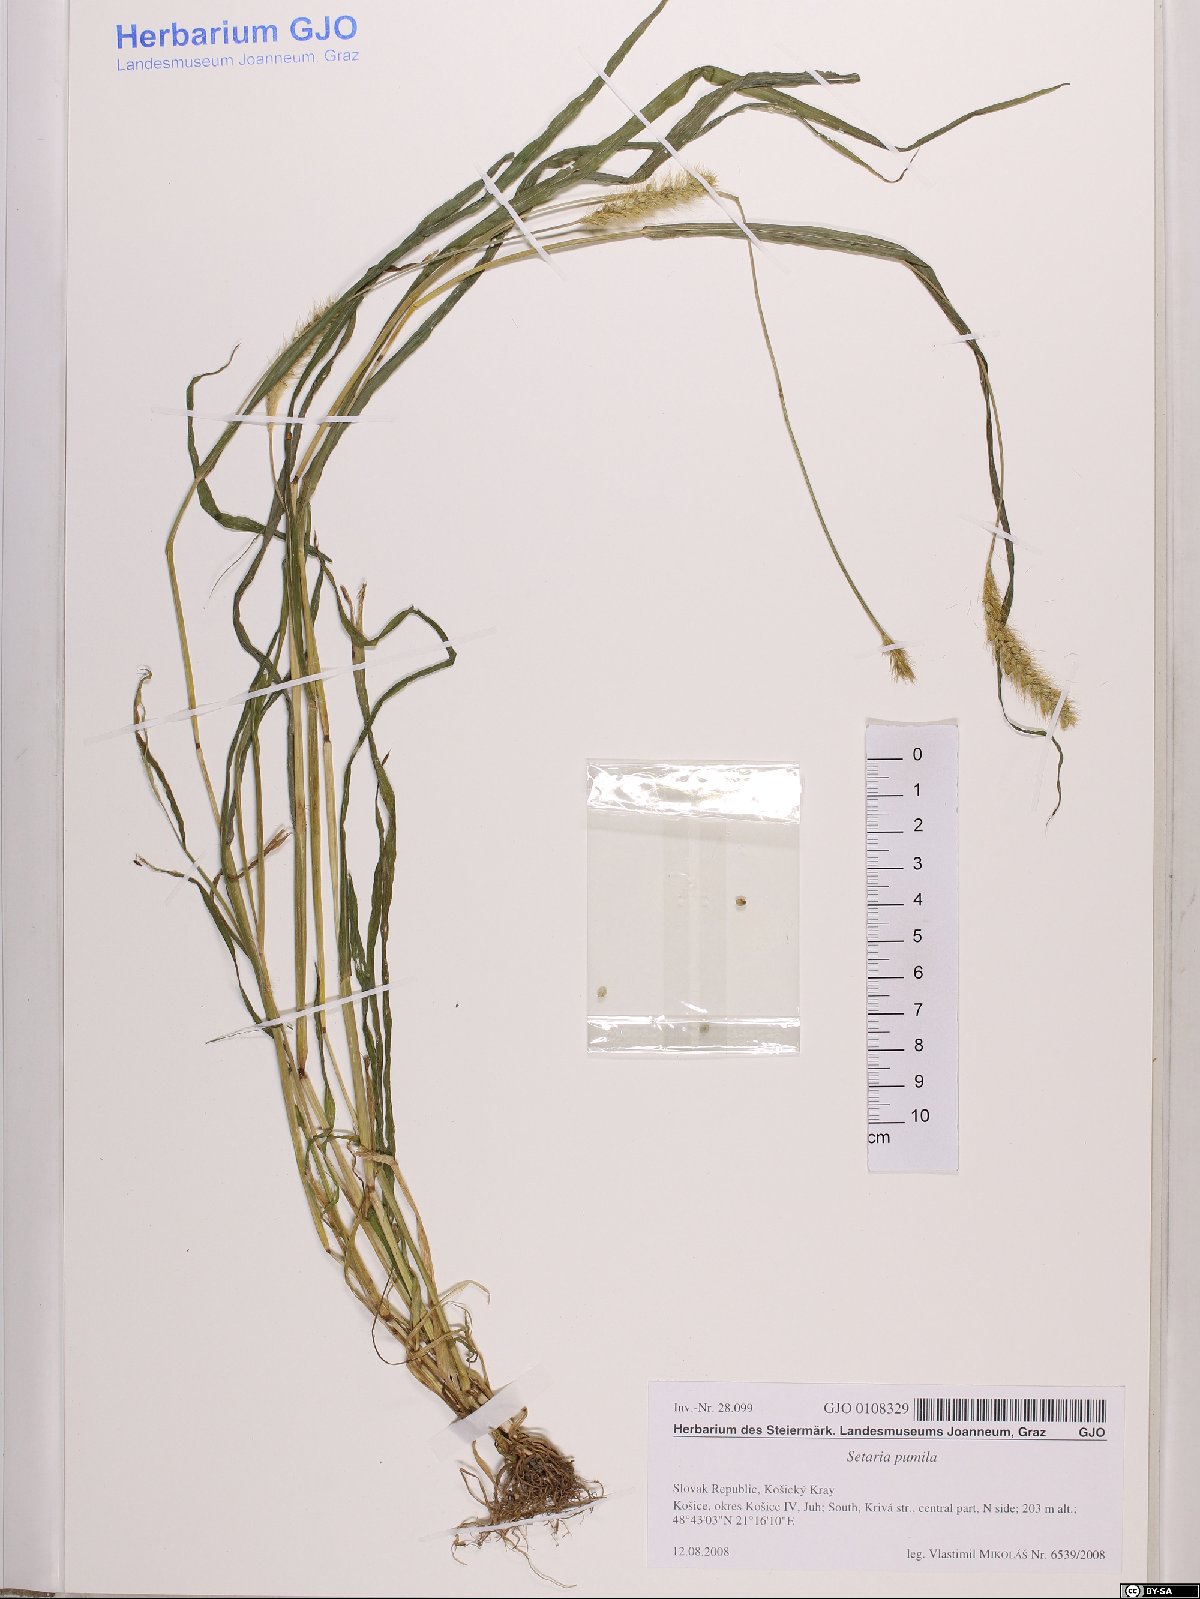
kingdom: Plantae
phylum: Tracheophyta
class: Liliopsida
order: Poales
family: Poaceae
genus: Setaria
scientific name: Setaria pumila
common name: Yellow bristle-grass
